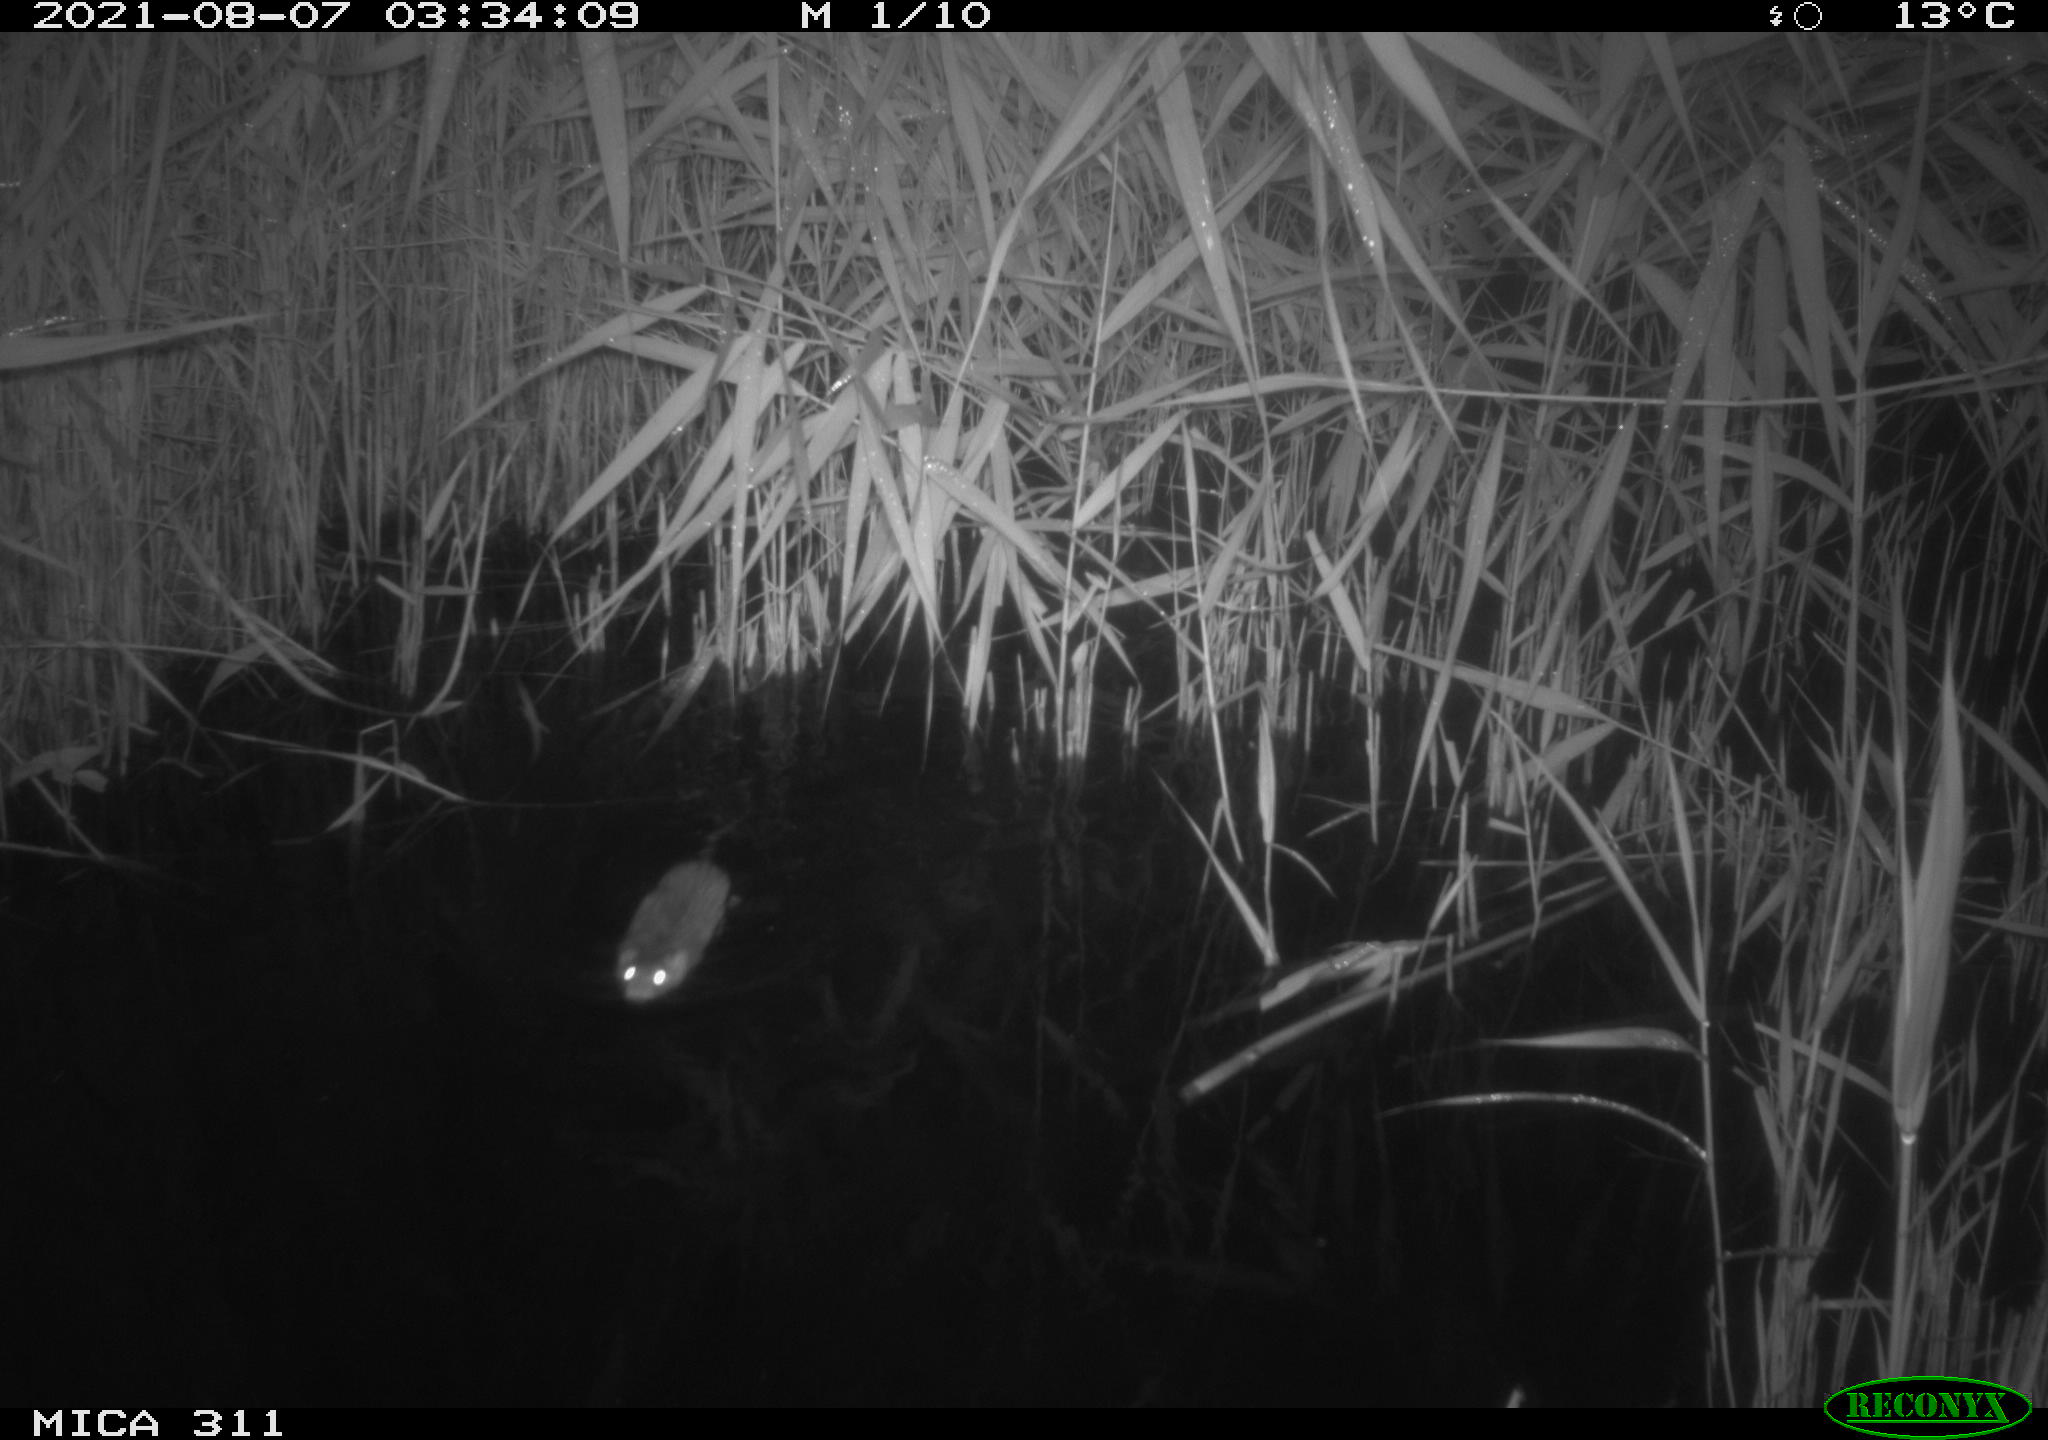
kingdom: Animalia
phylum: Chordata
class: Mammalia
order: Rodentia
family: Muridae
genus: Rattus
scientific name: Rattus norvegicus
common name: Brown rat
